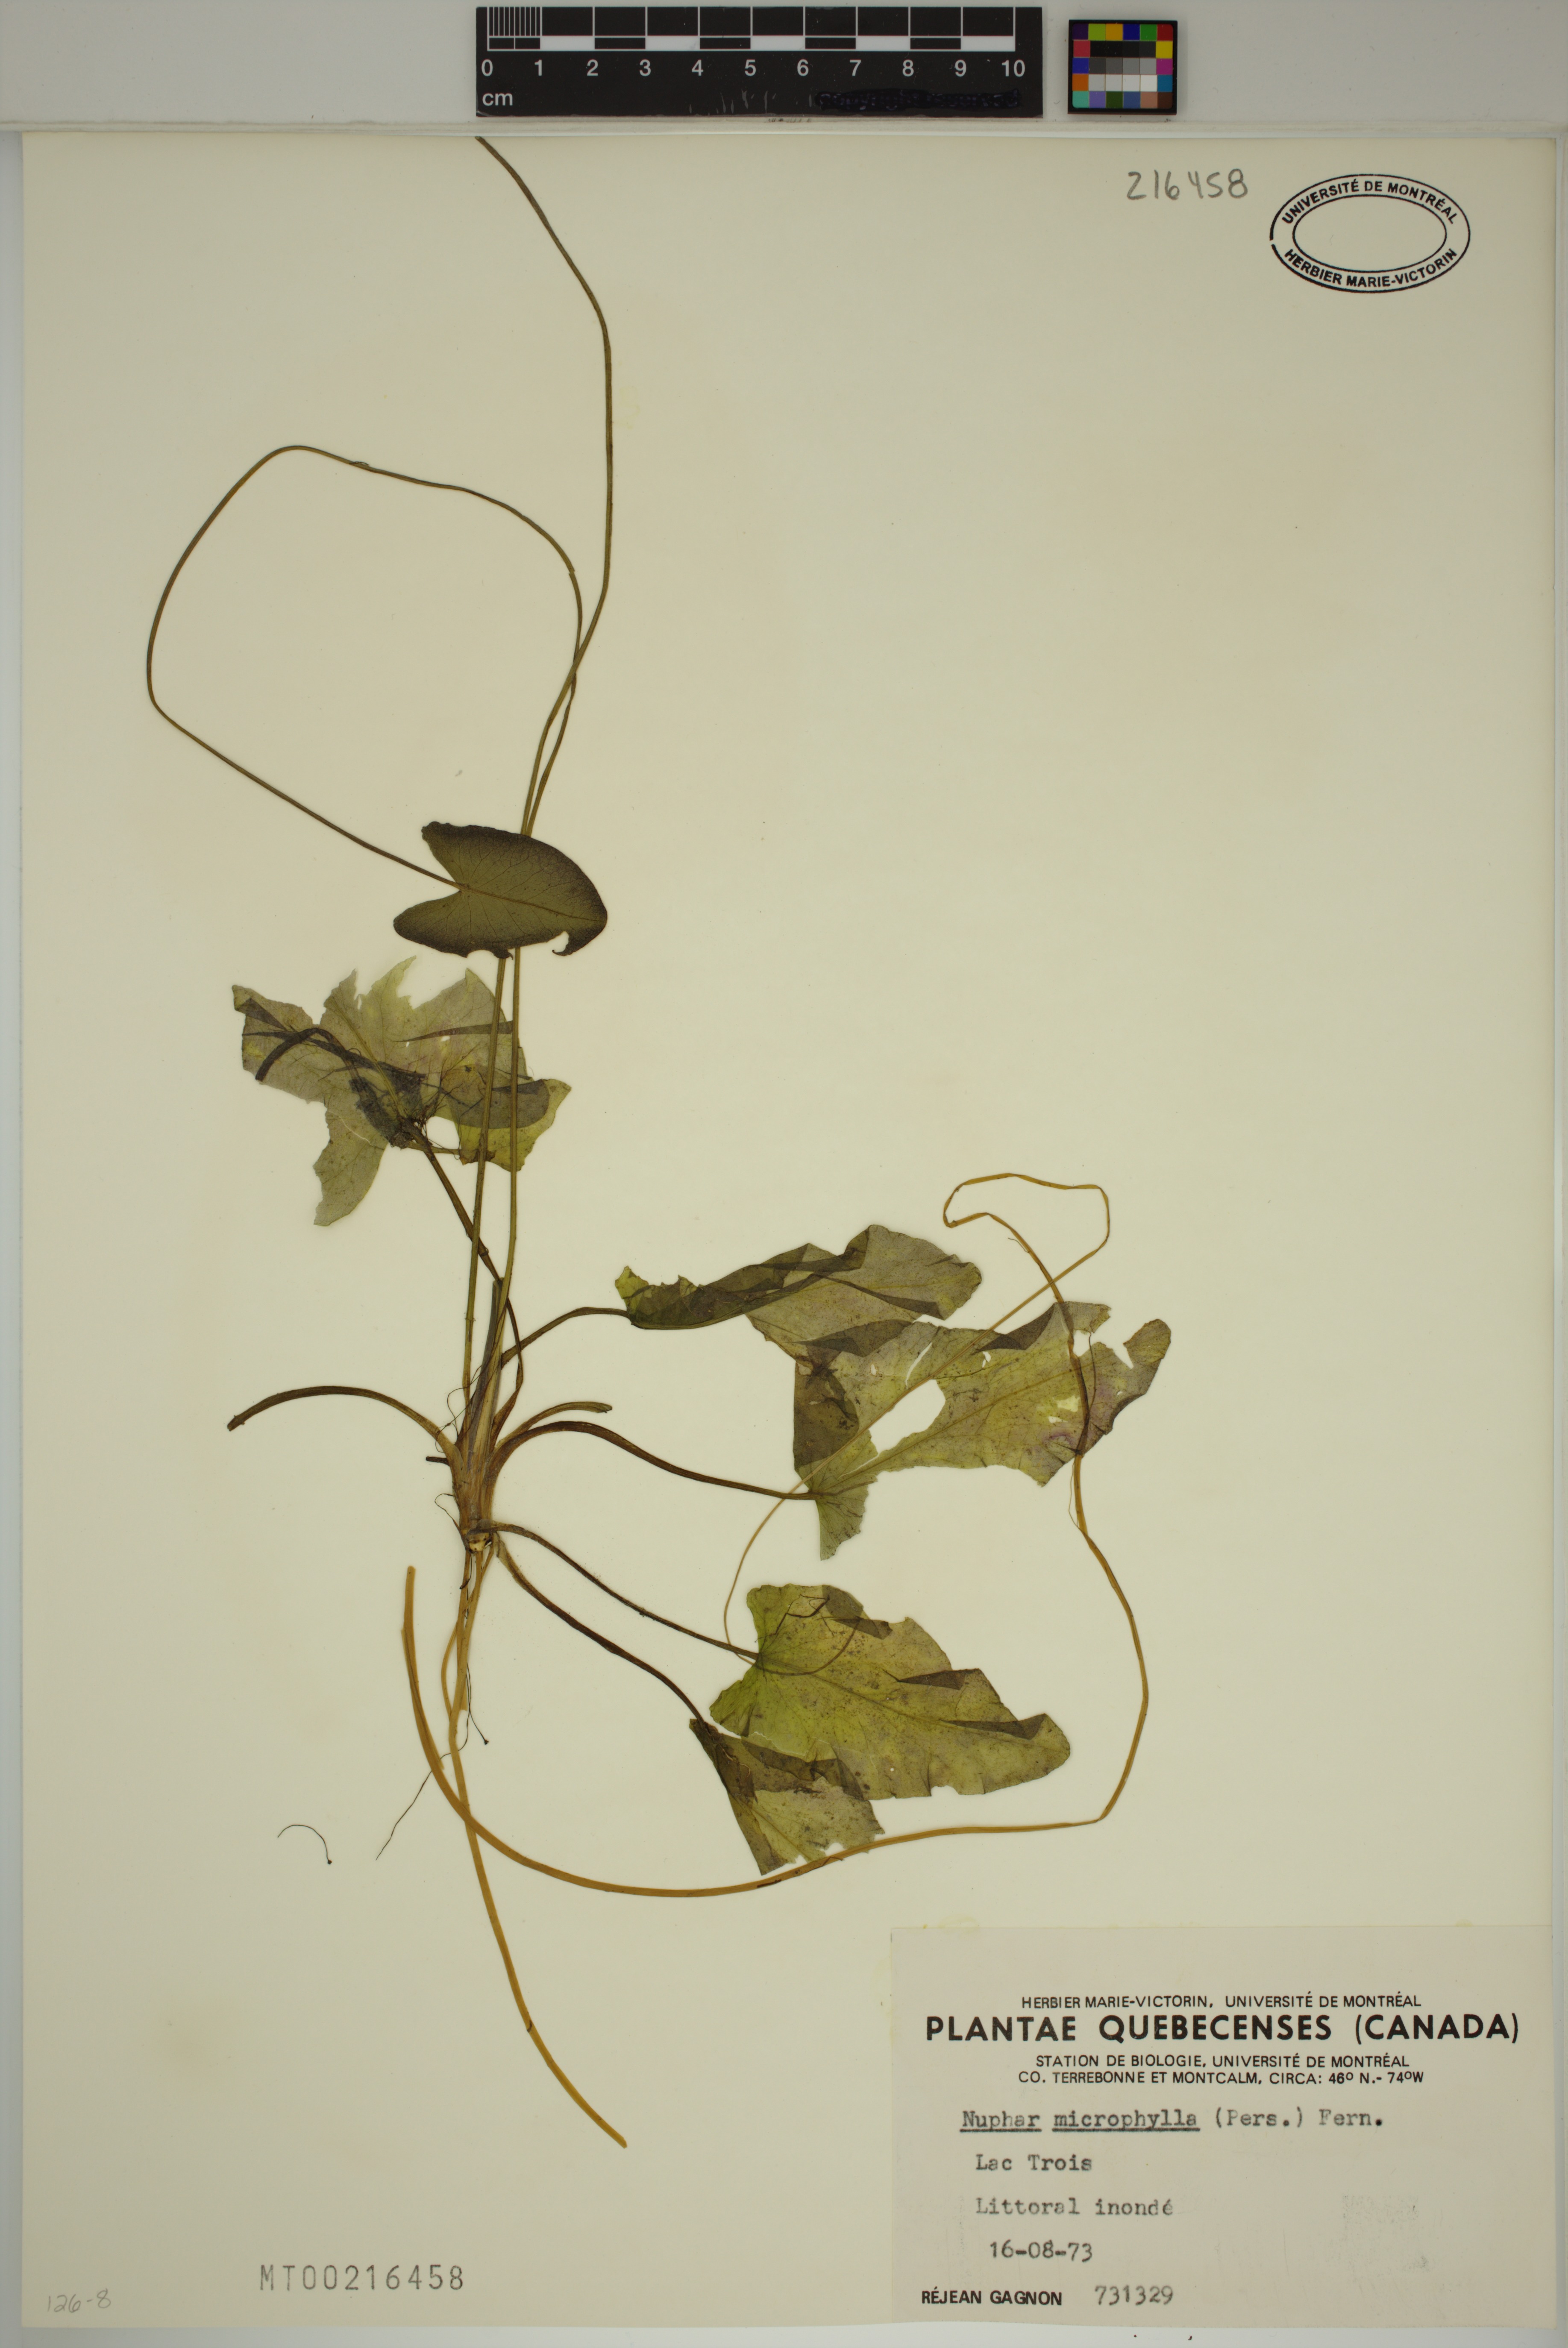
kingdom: Plantae
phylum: Tracheophyta
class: Magnoliopsida
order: Nymphaeales
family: Nymphaeaceae
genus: Nuphar
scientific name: Nuphar microphylla
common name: Small pond-lily
